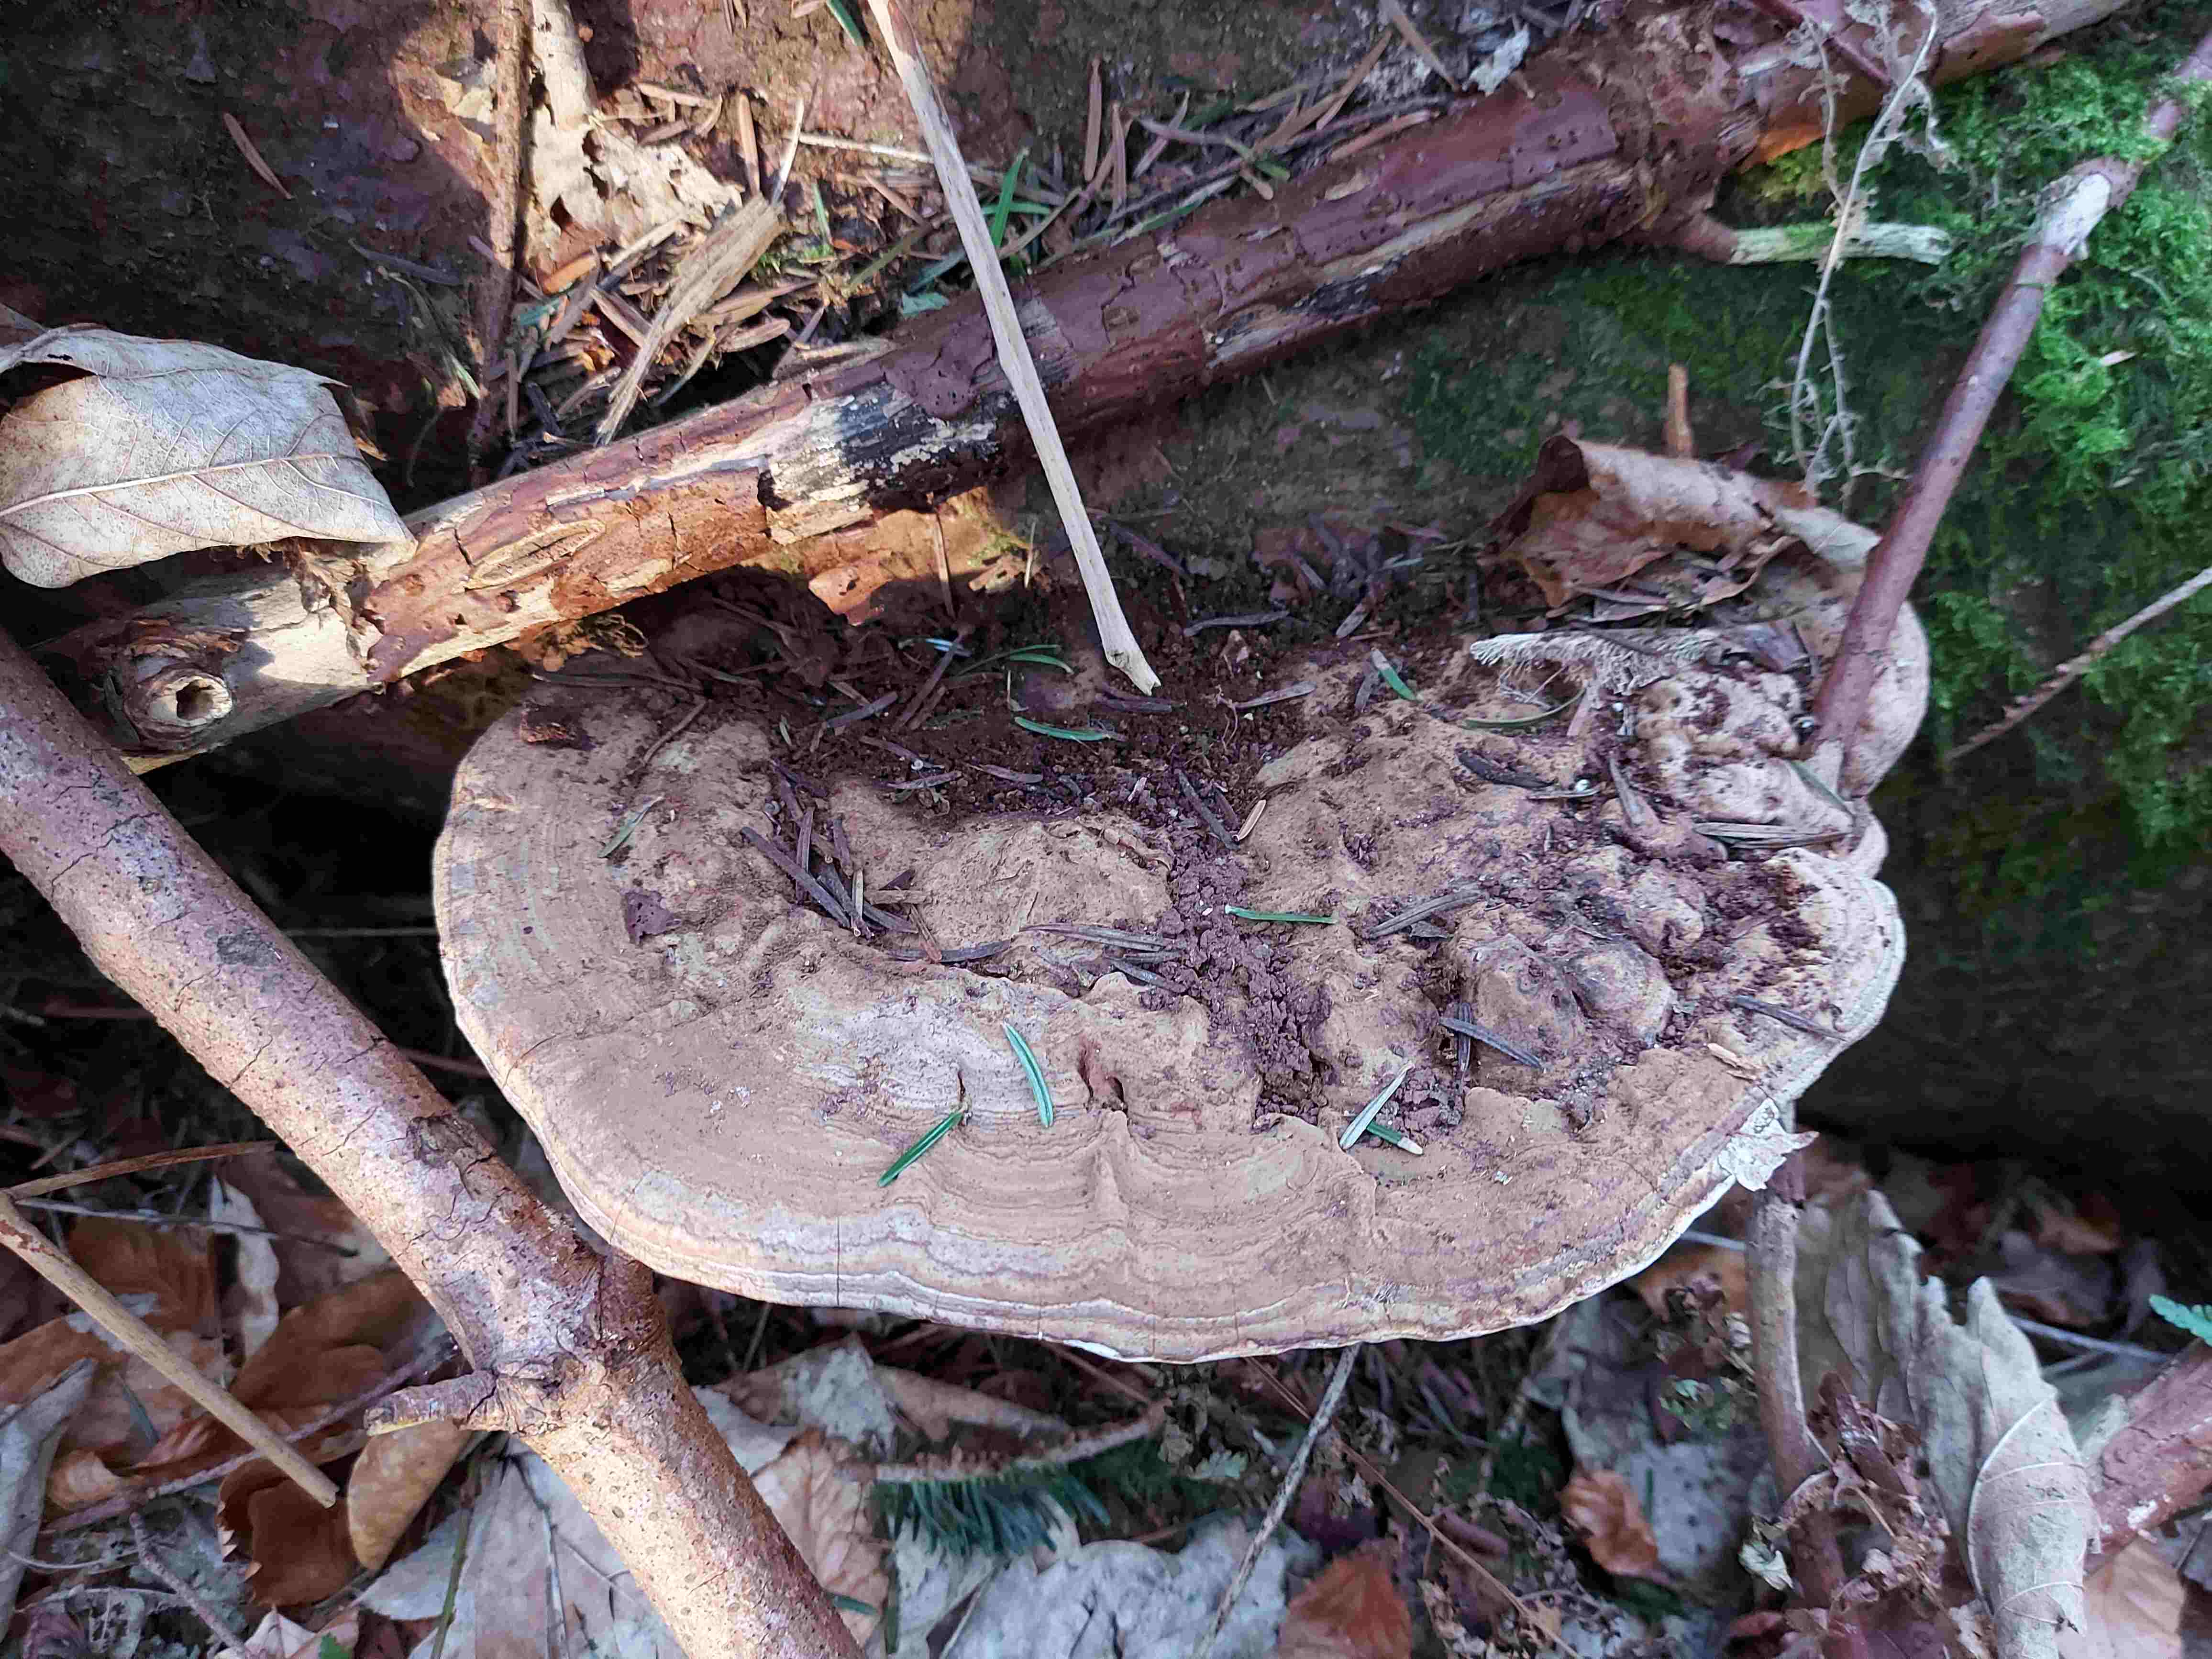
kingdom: Fungi
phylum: Basidiomycota
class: Agaricomycetes
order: Polyporales
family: Polyporaceae
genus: Ganoderma
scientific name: Ganoderma applanatum
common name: flad lakporesvamp
